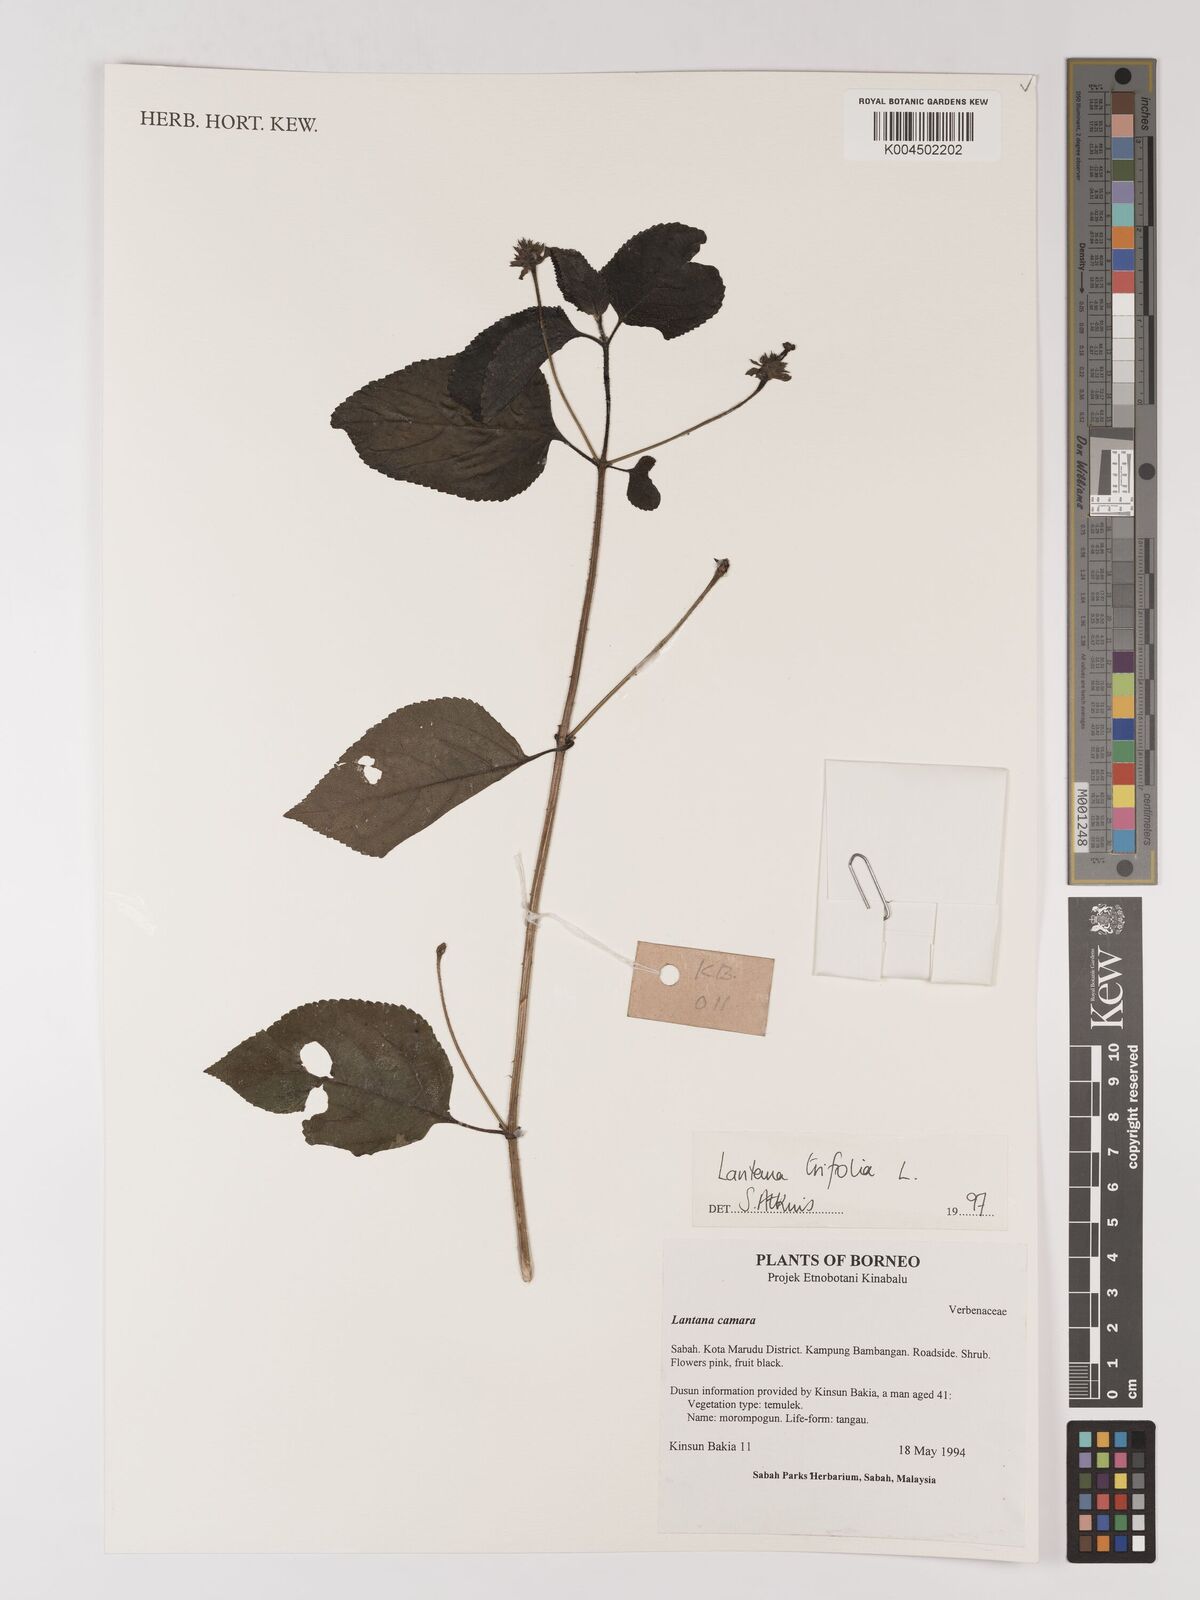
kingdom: Plantae
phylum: Tracheophyta
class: Magnoliopsida
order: Lamiales
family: Verbenaceae
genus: Lantana
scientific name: Lantana trifolia
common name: Sweet-sage
